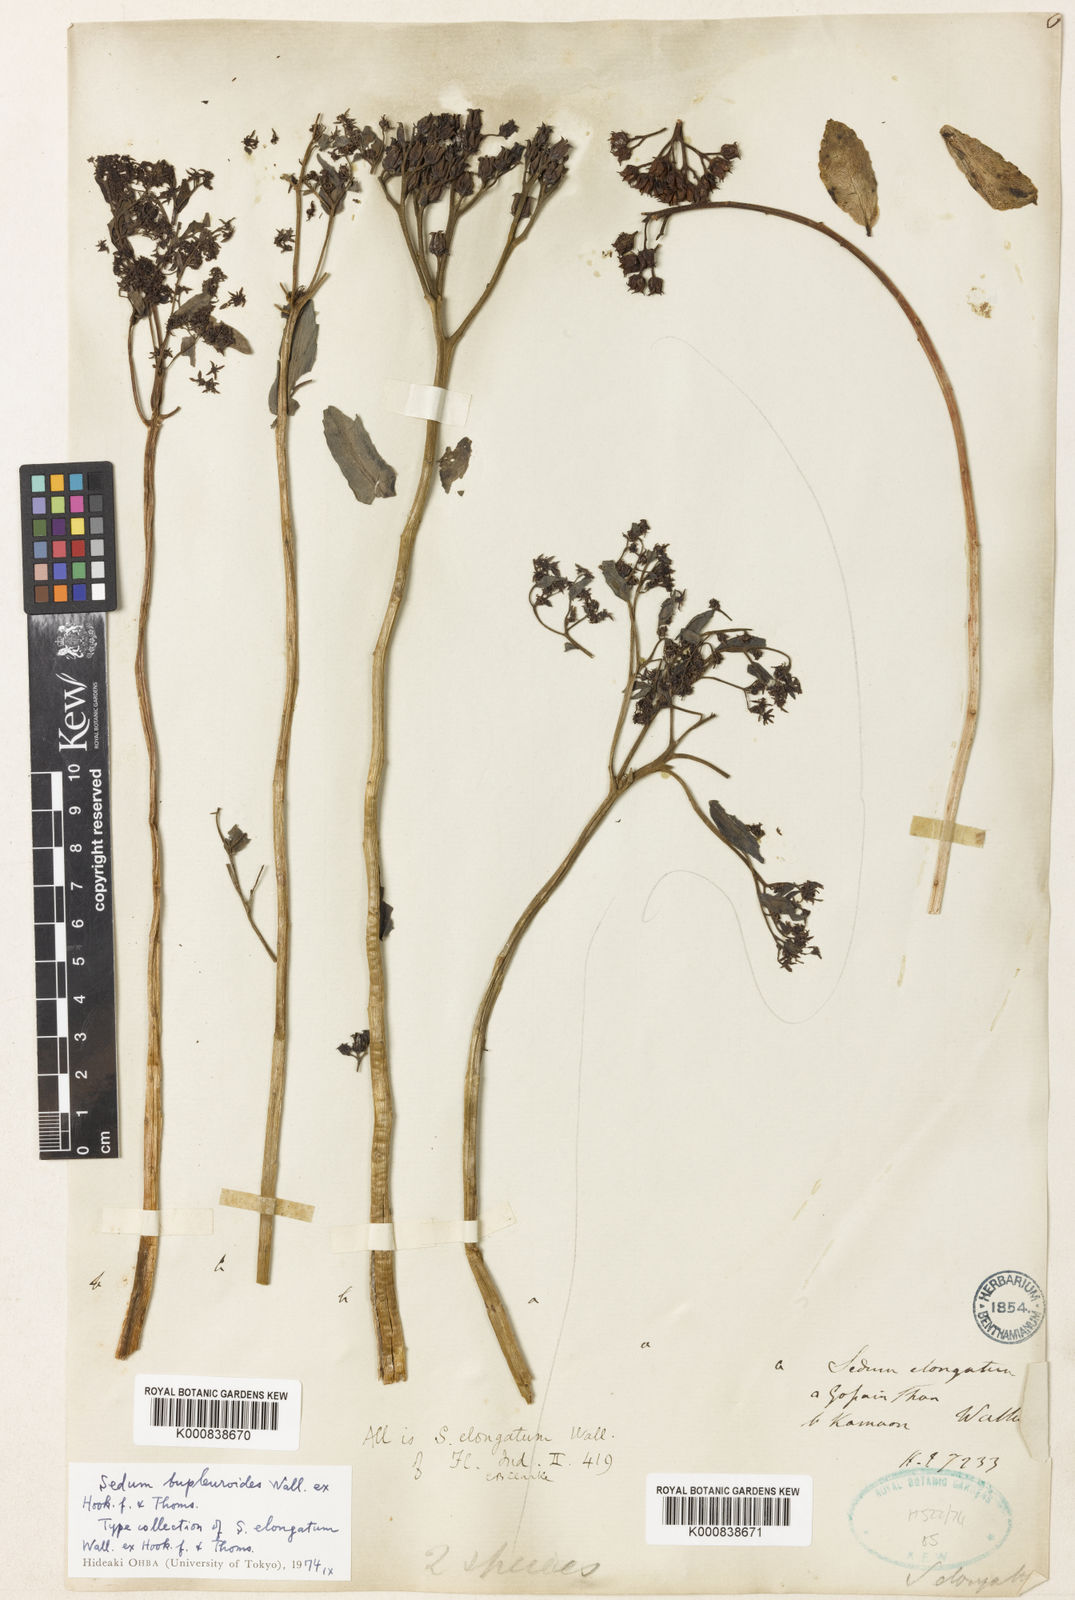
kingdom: Plantae
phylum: Tracheophyta
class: Magnoliopsida
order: Saxifragales
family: Crassulaceae
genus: Rhodiola
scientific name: Rhodiola bupleuroides
